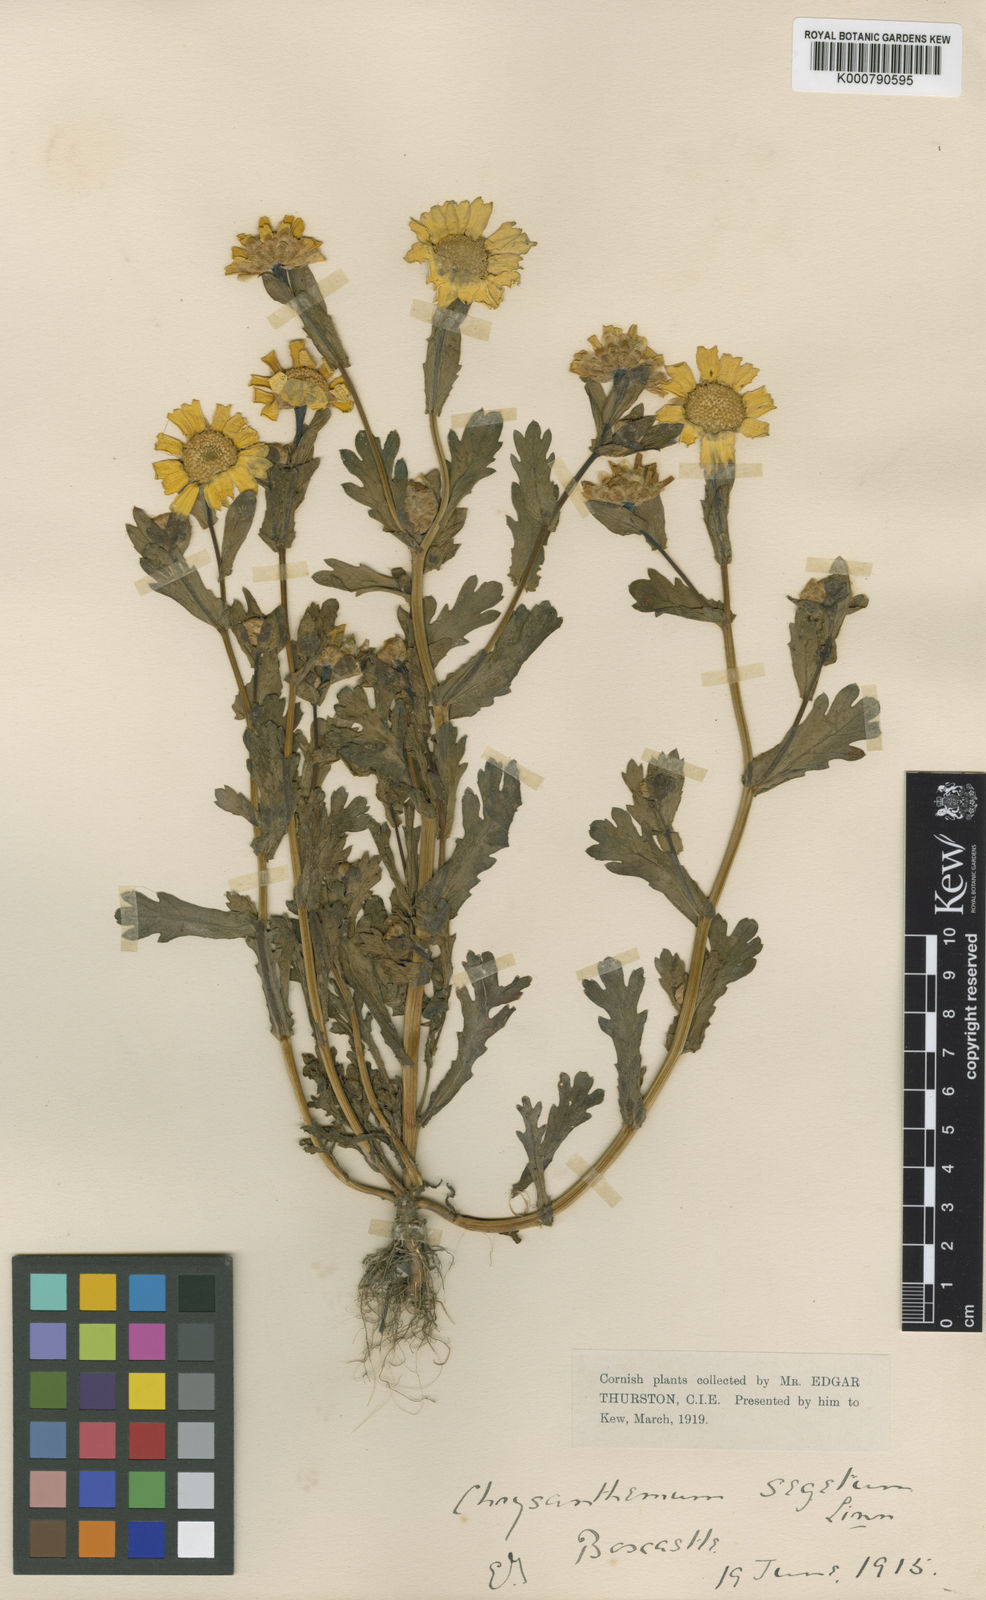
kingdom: Plantae
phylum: Tracheophyta
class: Magnoliopsida
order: Asterales
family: Asteraceae
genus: Glebionis
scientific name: Glebionis
